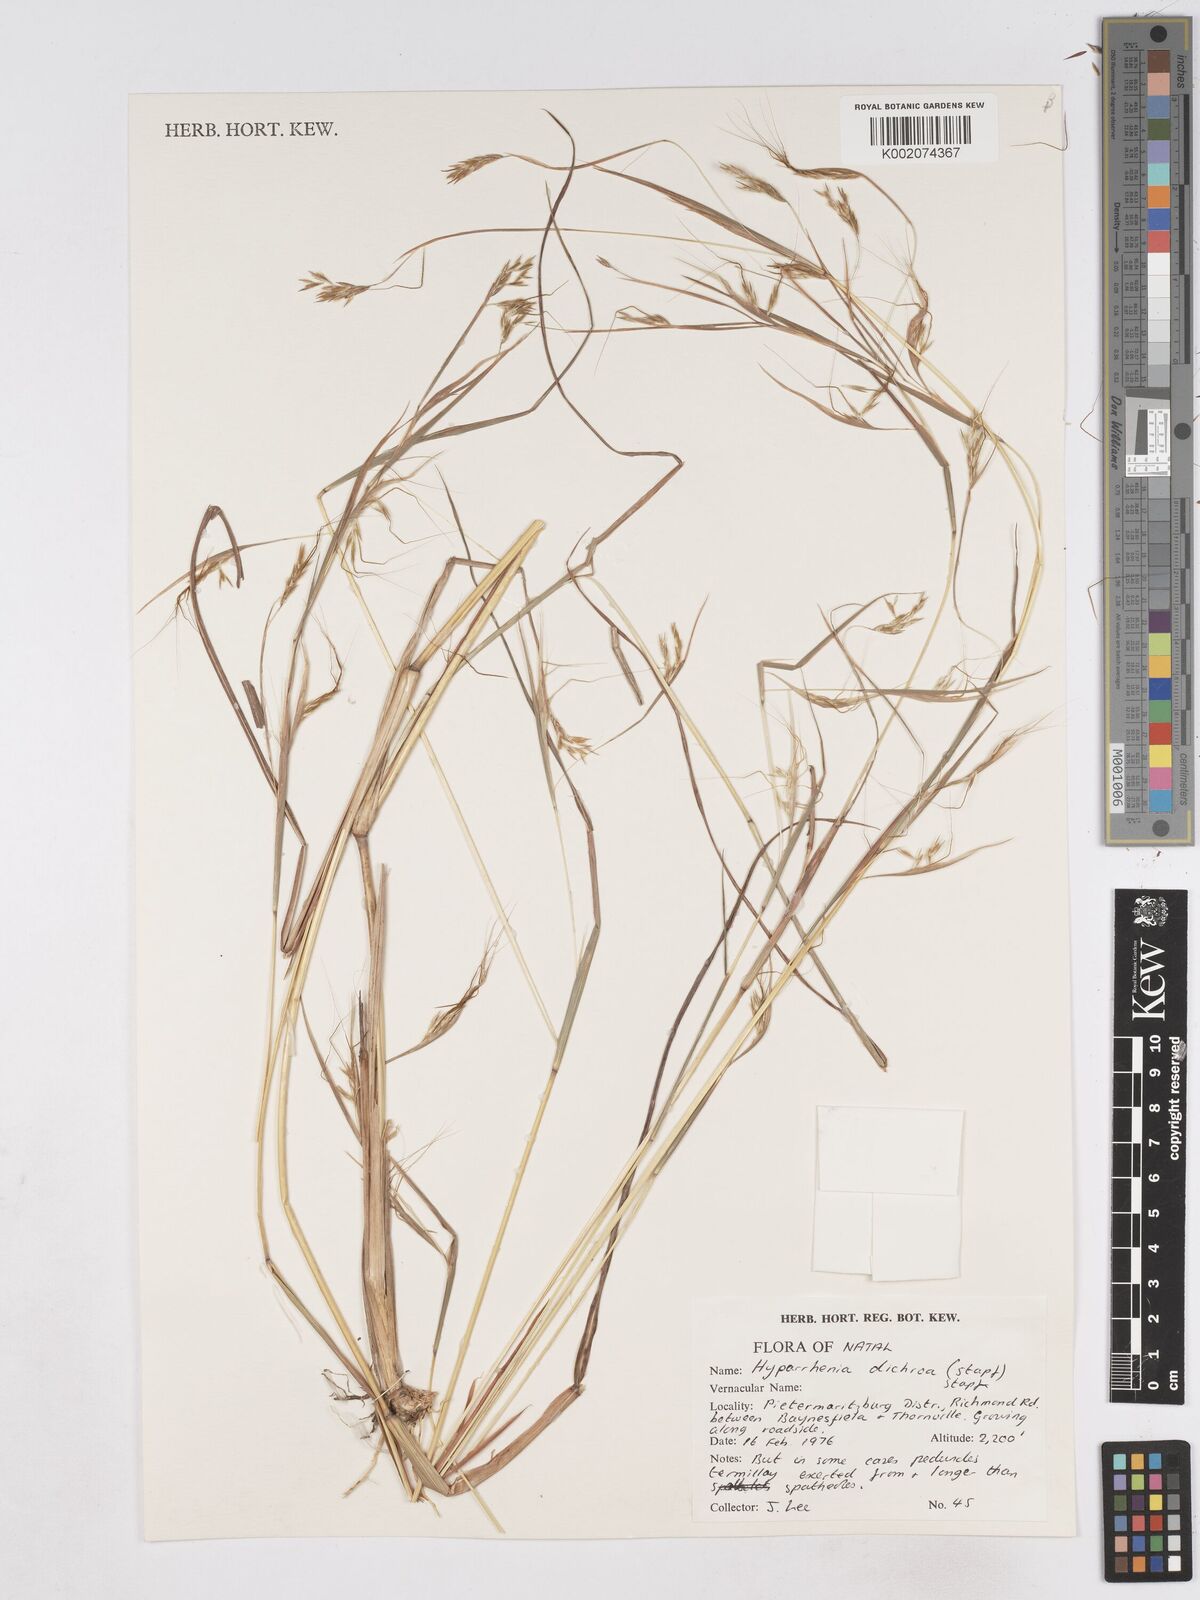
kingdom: Plantae
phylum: Tracheophyta
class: Liliopsida
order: Poales
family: Poaceae
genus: Hyparrhenia
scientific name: Hyparrhenia dichroa
